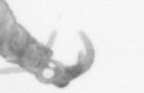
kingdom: Animalia
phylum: Arthropoda
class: Copepoda
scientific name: Copepoda
